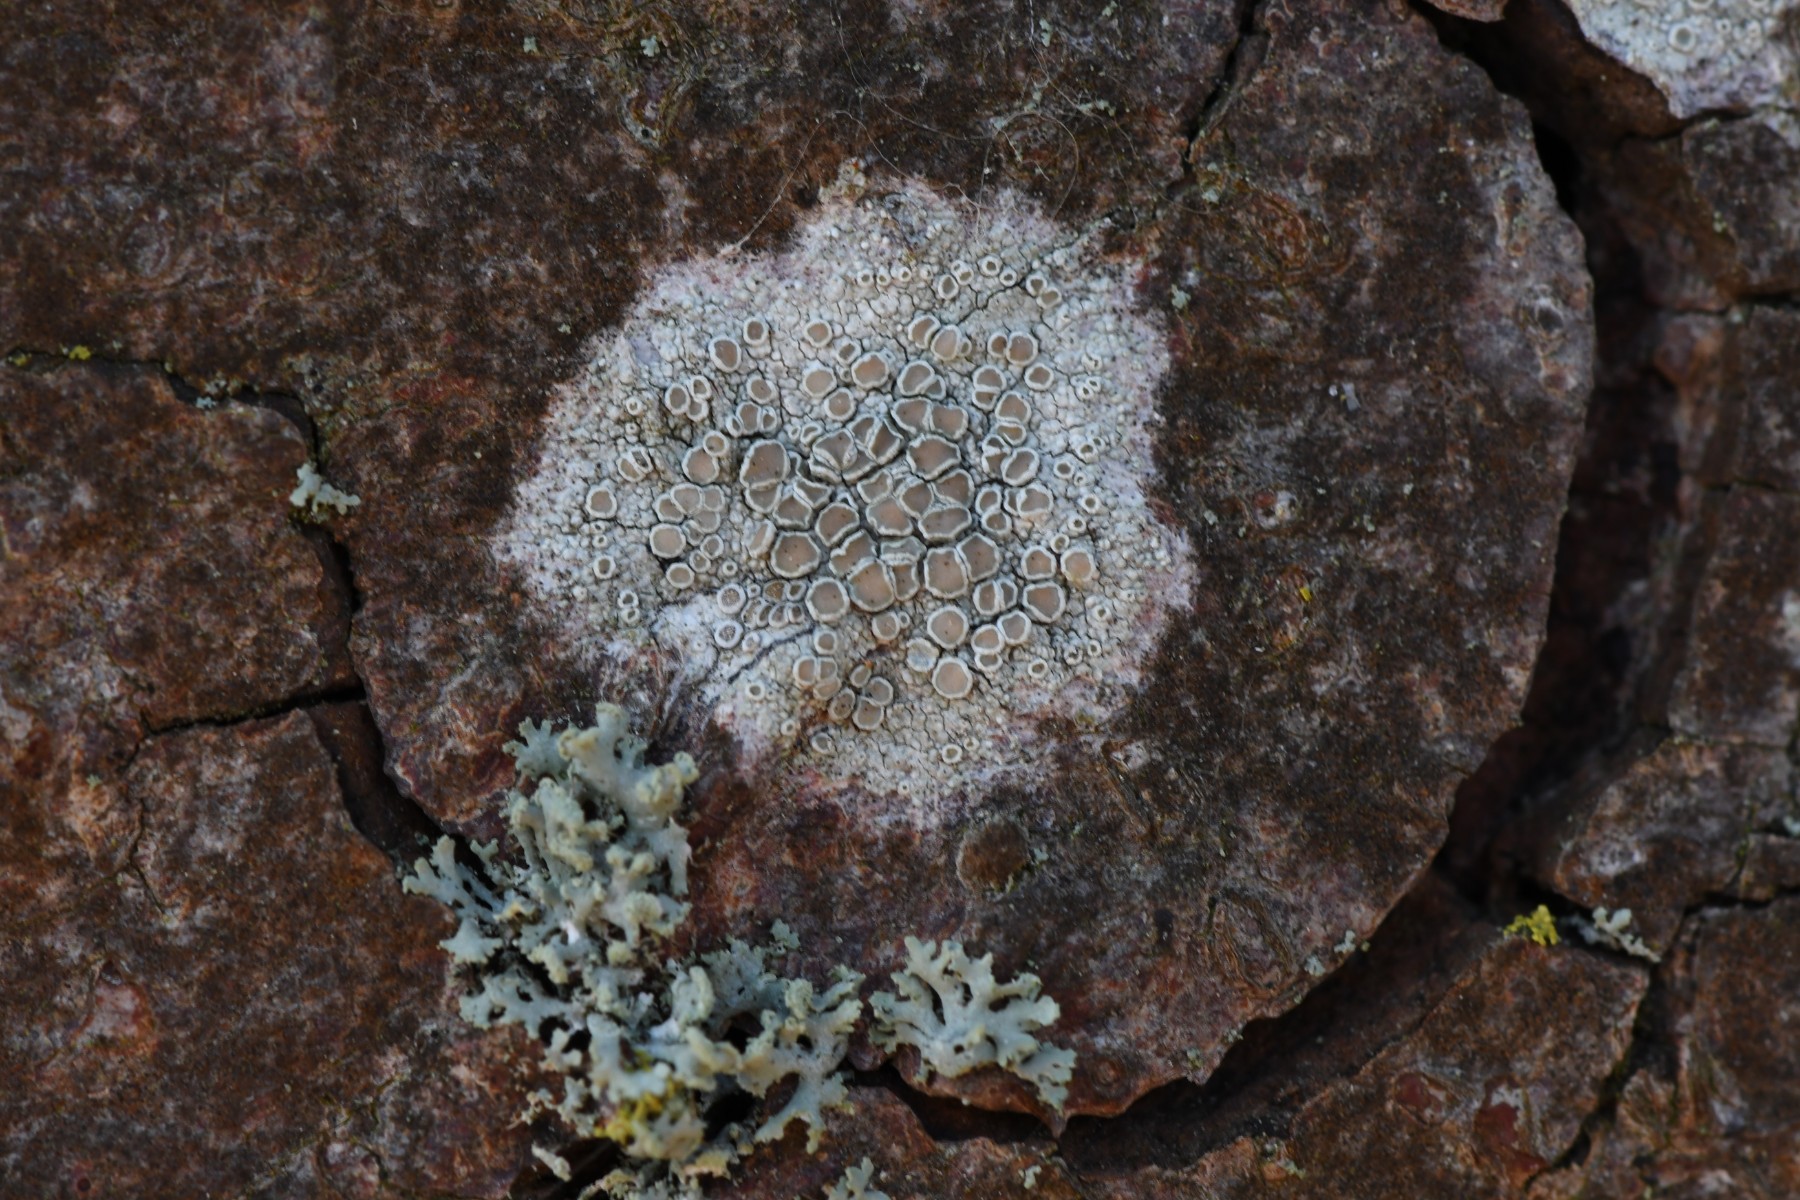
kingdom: Fungi
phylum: Ascomycota
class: Lecanoromycetes
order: Lecanorales
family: Lecanoraceae
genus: Lecanora
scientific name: Lecanora chlarotera
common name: brun kantskivelav
